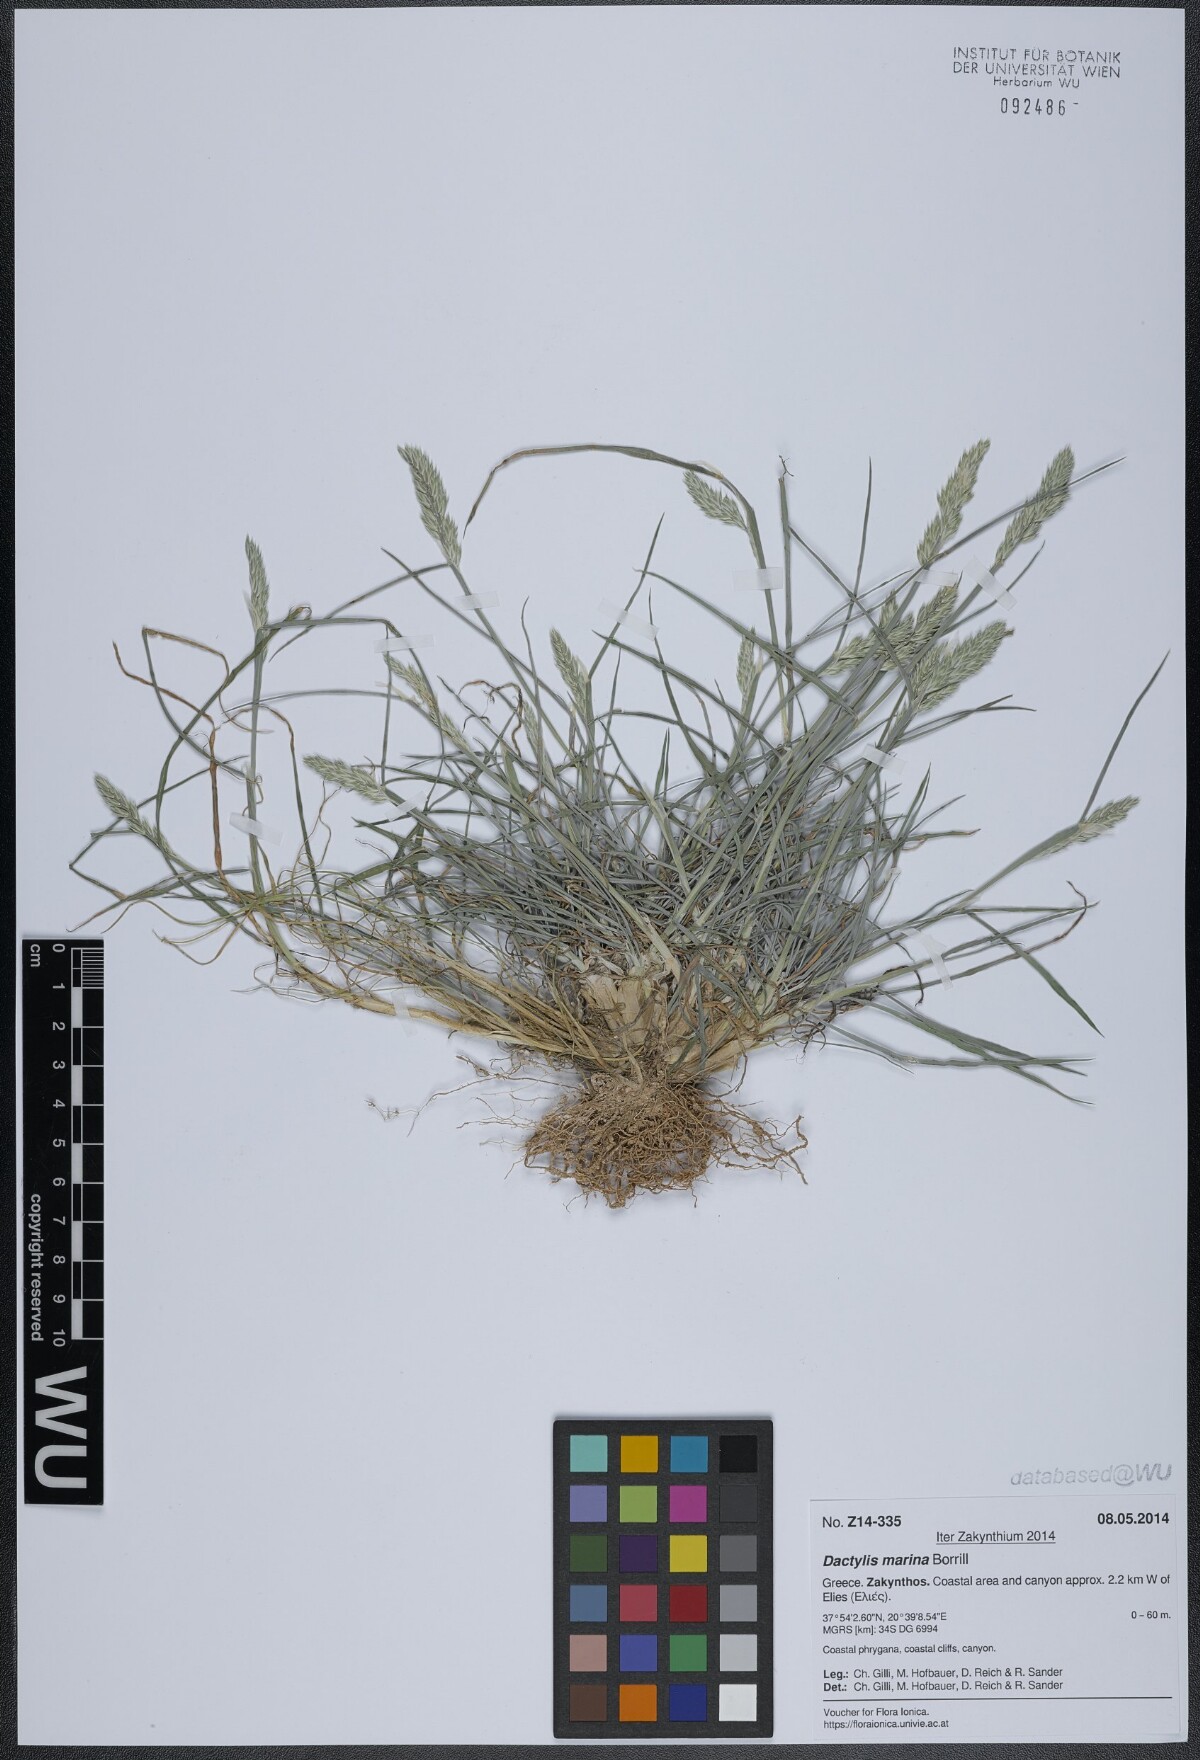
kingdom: Plantae
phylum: Tracheophyta
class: Liliopsida
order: Poales
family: Poaceae
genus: Dactylis
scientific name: Dactylis glomerata
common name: Orchardgrass
